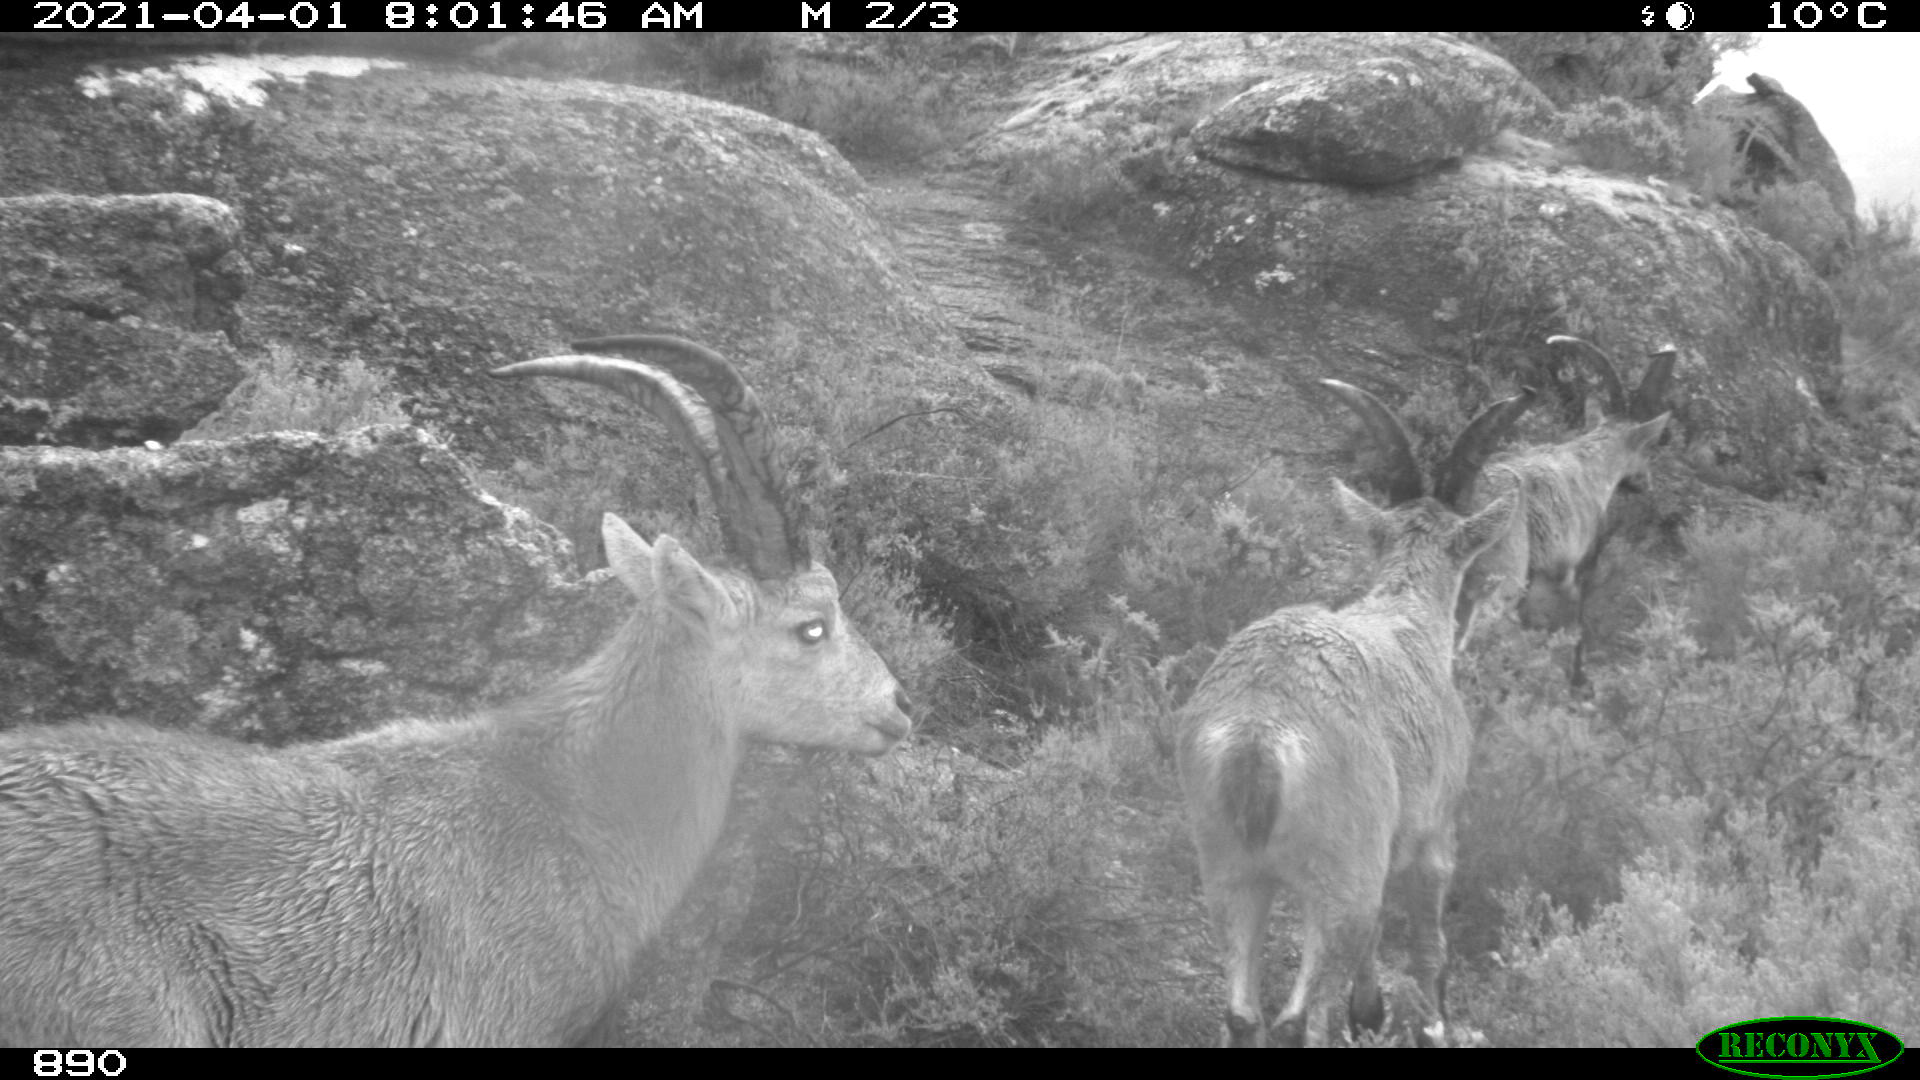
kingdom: Animalia
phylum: Chordata
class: Mammalia
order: Artiodactyla
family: Bovidae
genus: Capra
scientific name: Capra pyrenaica
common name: Spanish ibex
